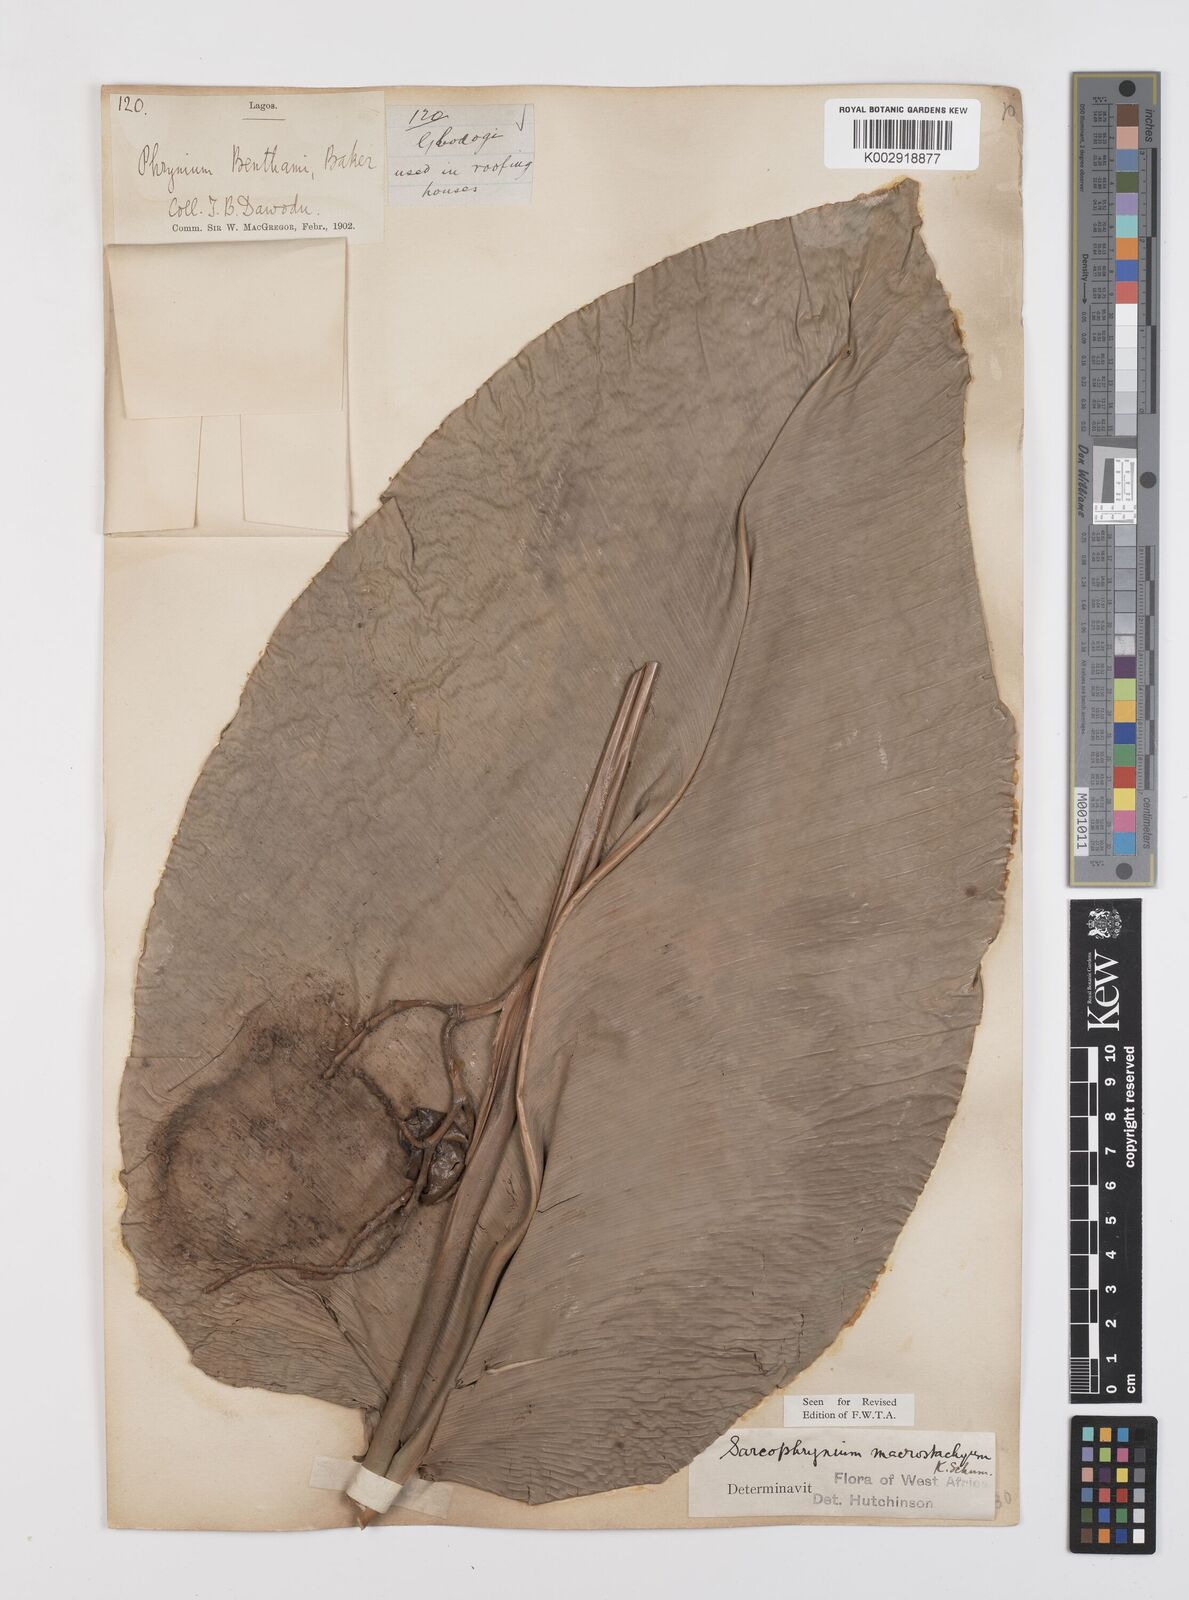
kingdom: Plantae
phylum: Tracheophyta
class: Liliopsida
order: Zingiberales
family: Marantaceae
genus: Megaphrynium
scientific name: Megaphrynium macrostachyum
